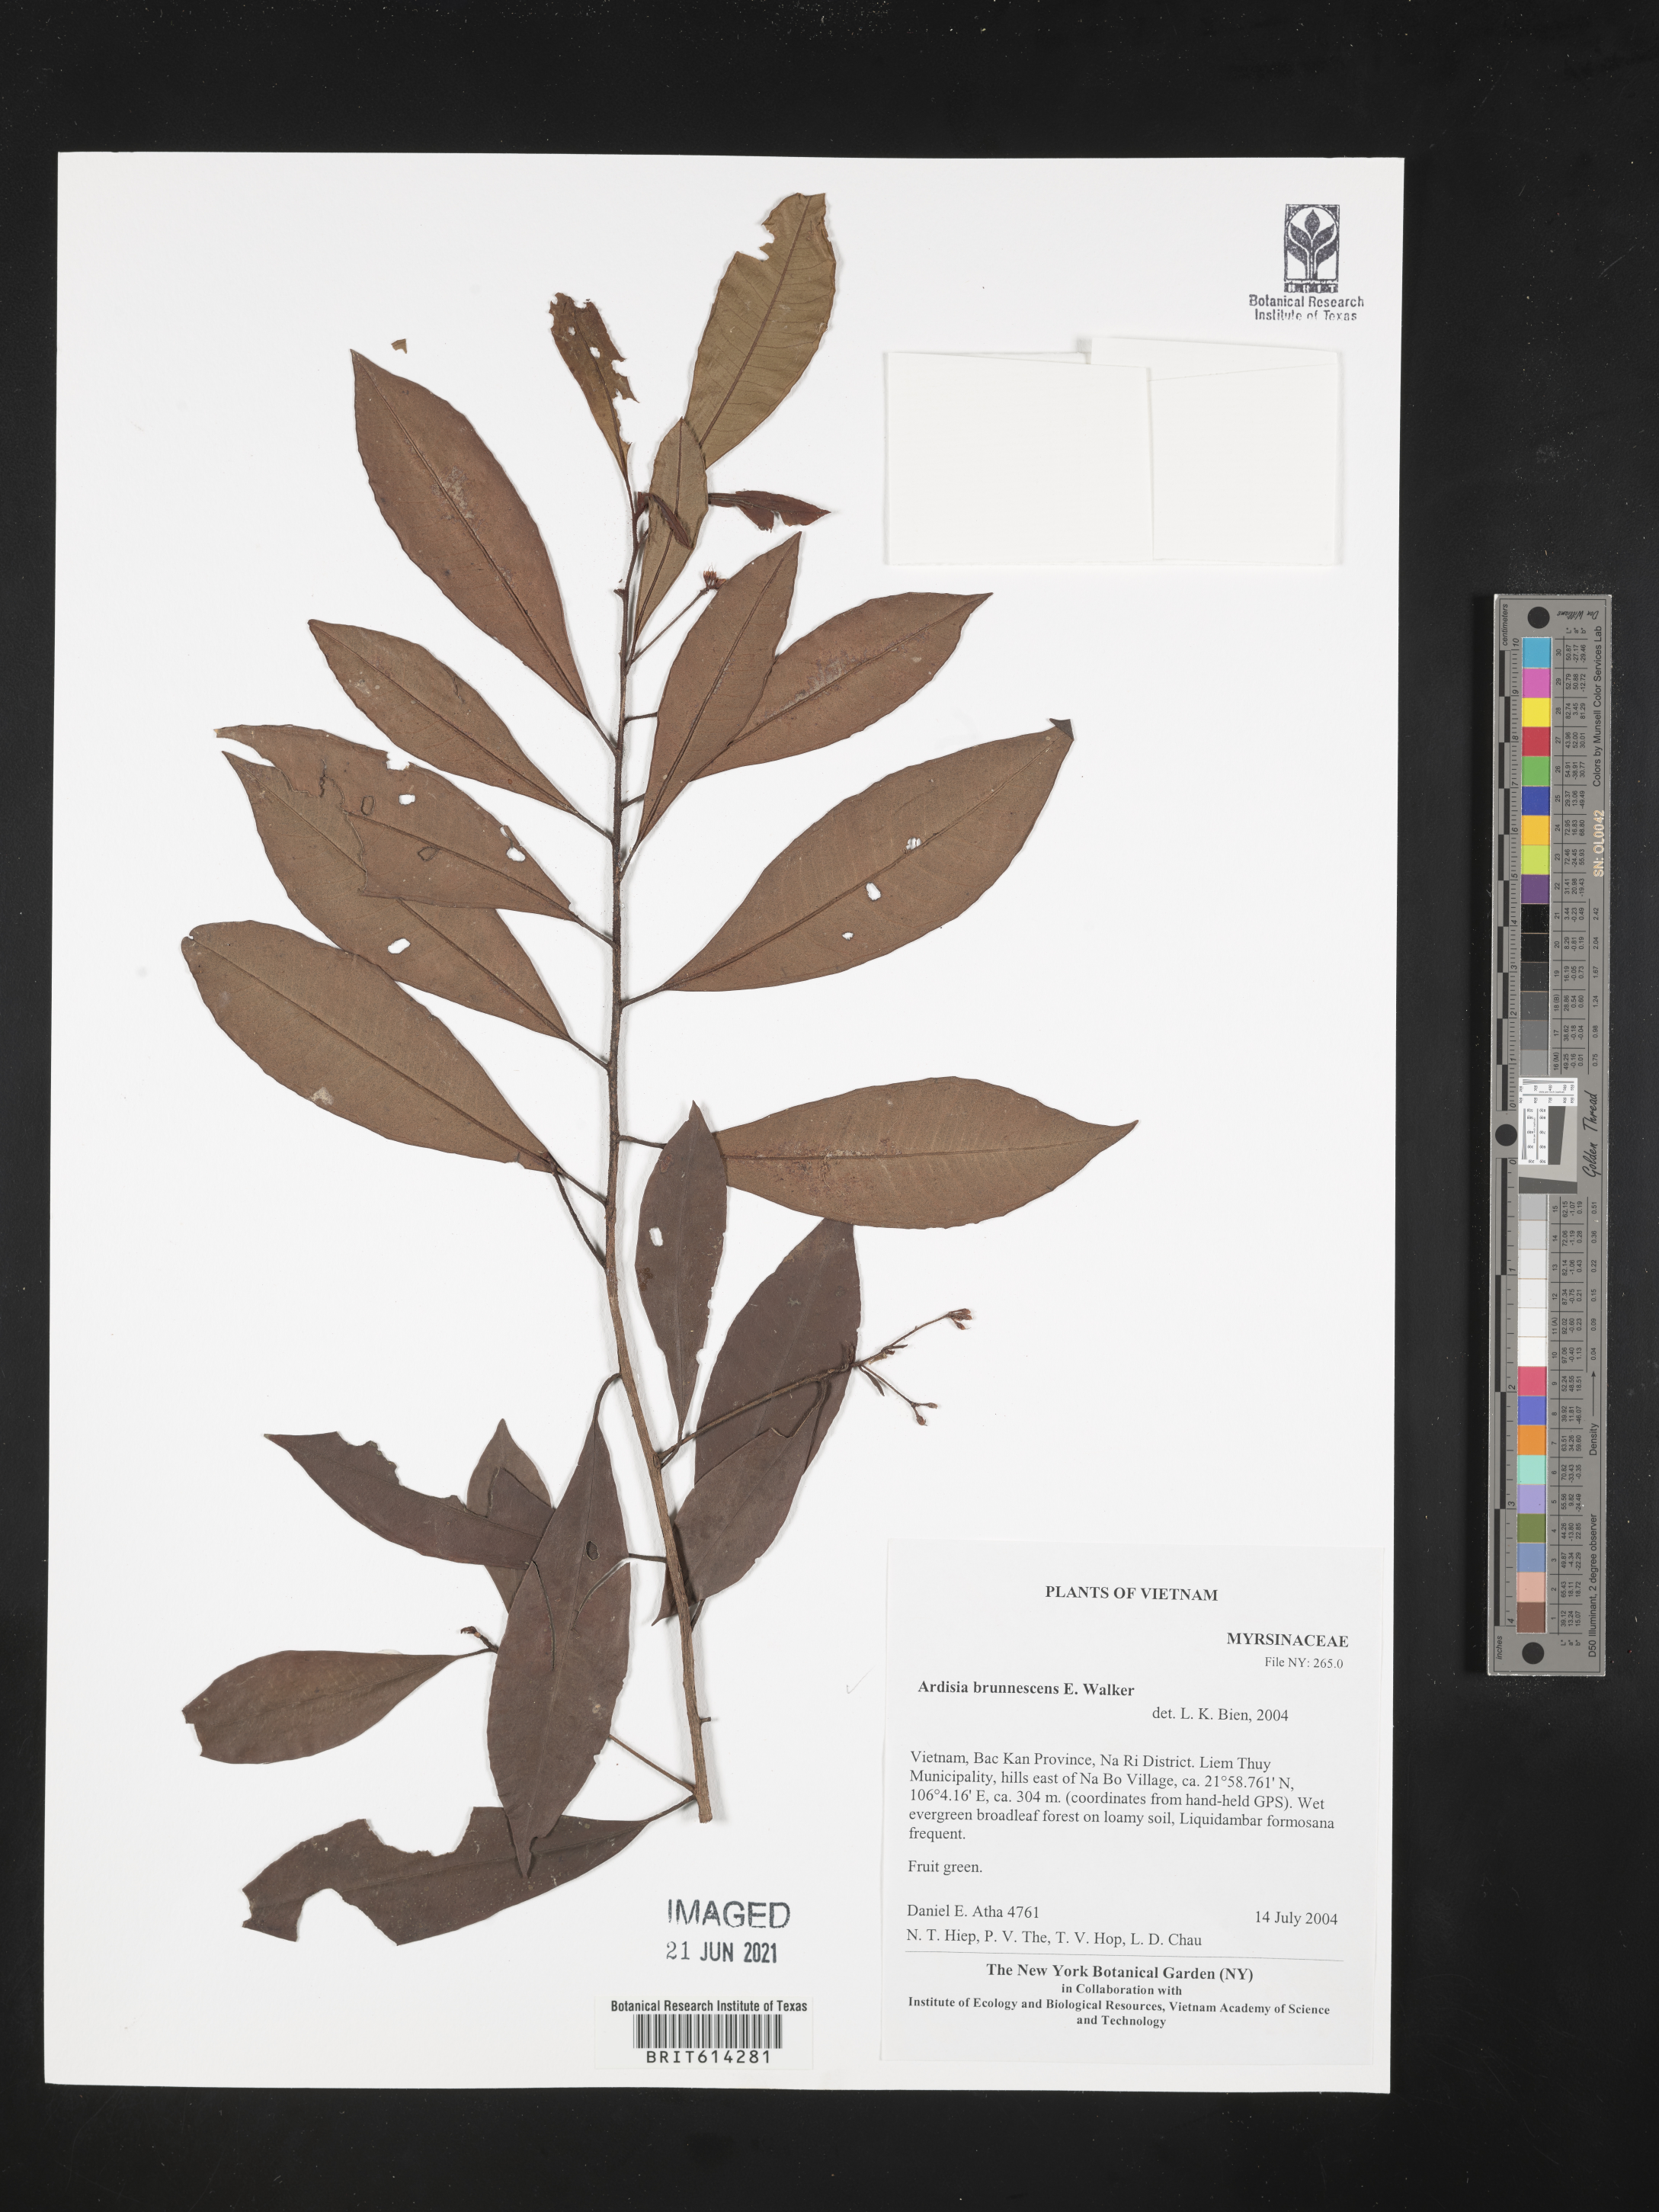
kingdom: Plantae
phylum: Tracheophyta
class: Magnoliopsida
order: Ericales
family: Primulaceae
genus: Ardisia
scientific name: Ardisia brunnescens
